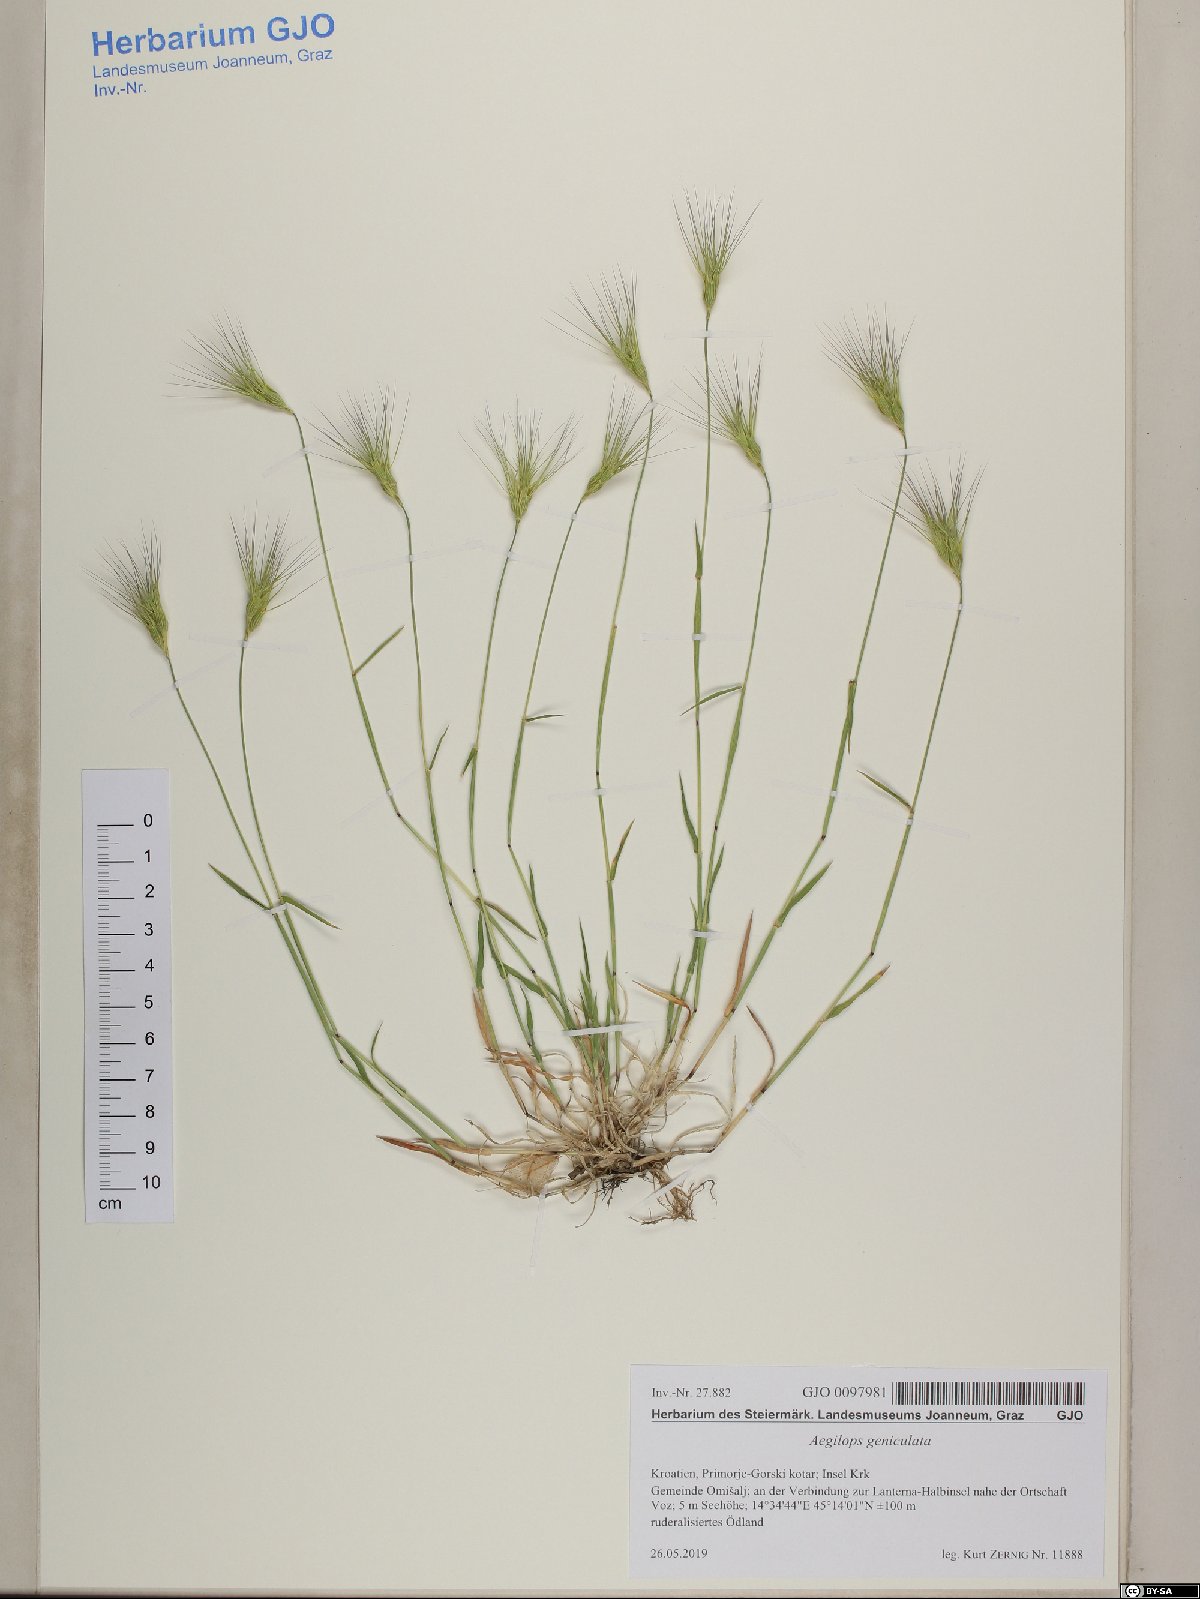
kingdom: Plantae
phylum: Tracheophyta
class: Liliopsida
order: Poales
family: Poaceae
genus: Aegilops
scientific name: Aegilops geniculata
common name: Ovate goat grass
